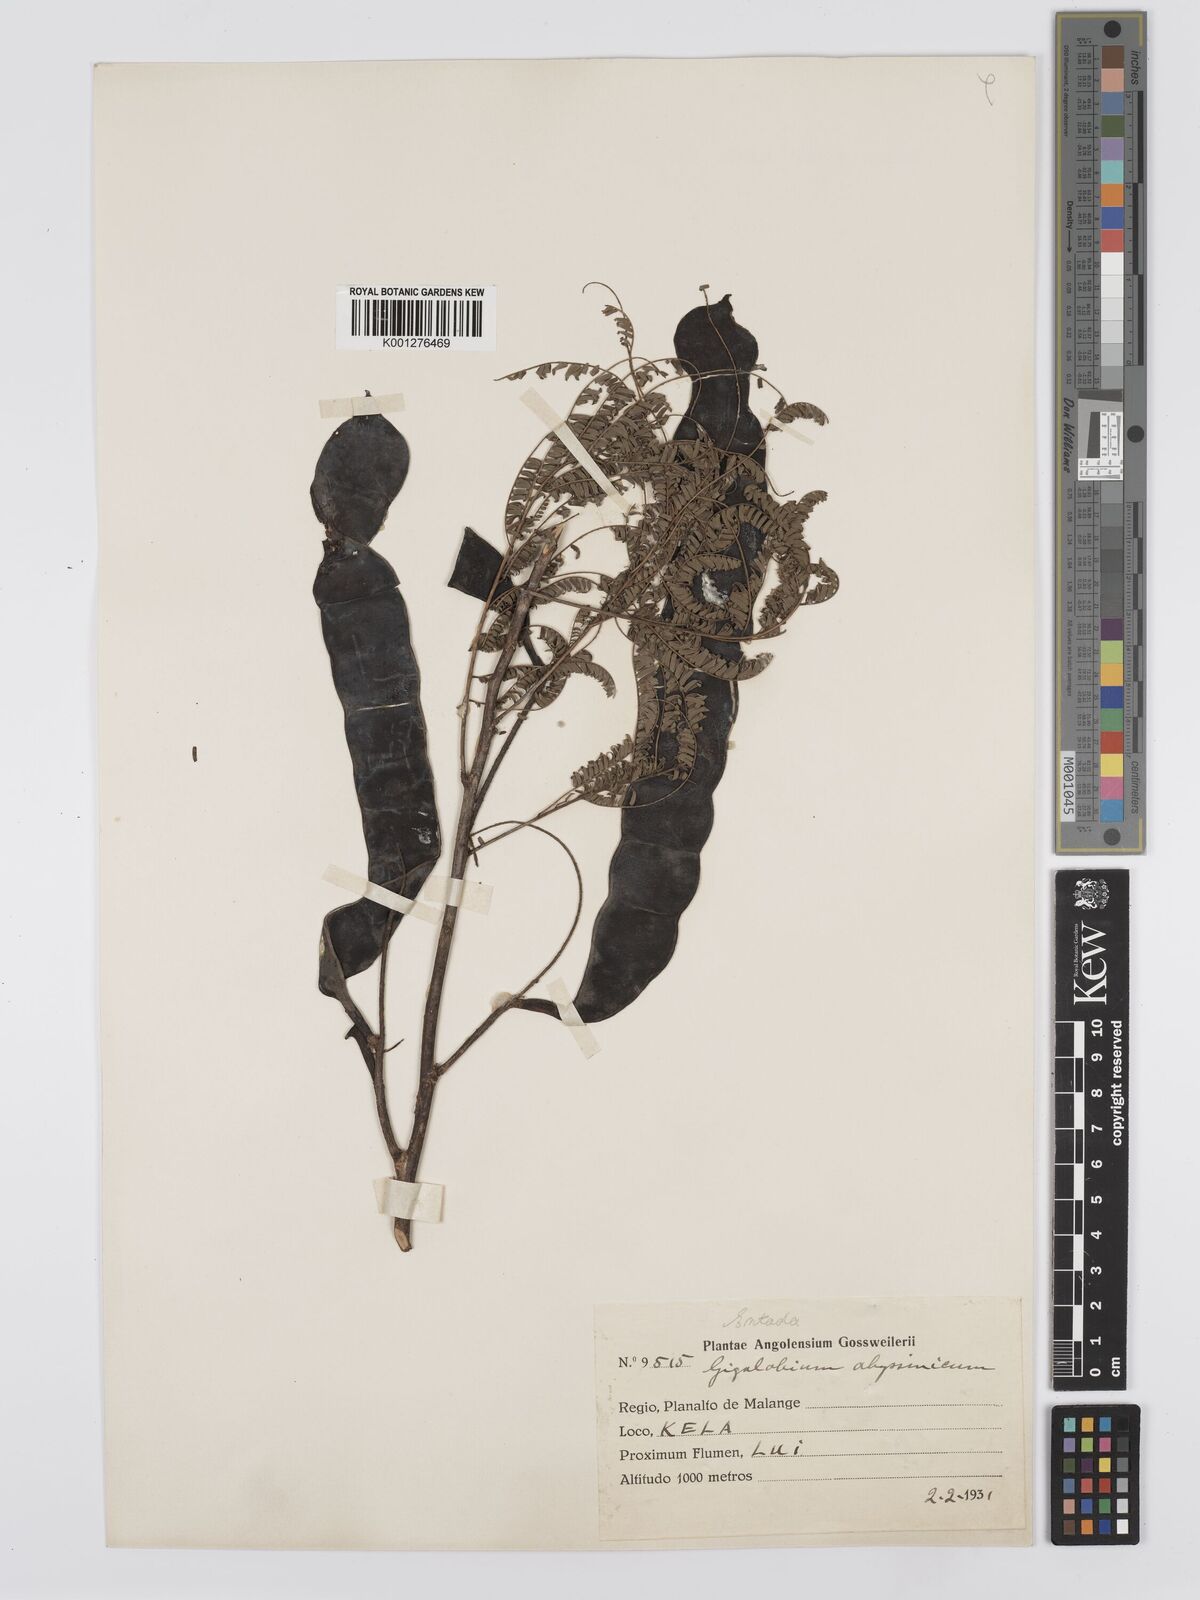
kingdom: Plantae
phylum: Tracheophyta
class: Magnoliopsida
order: Fabales
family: Fabaceae
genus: Entada
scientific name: Entada abyssinica
